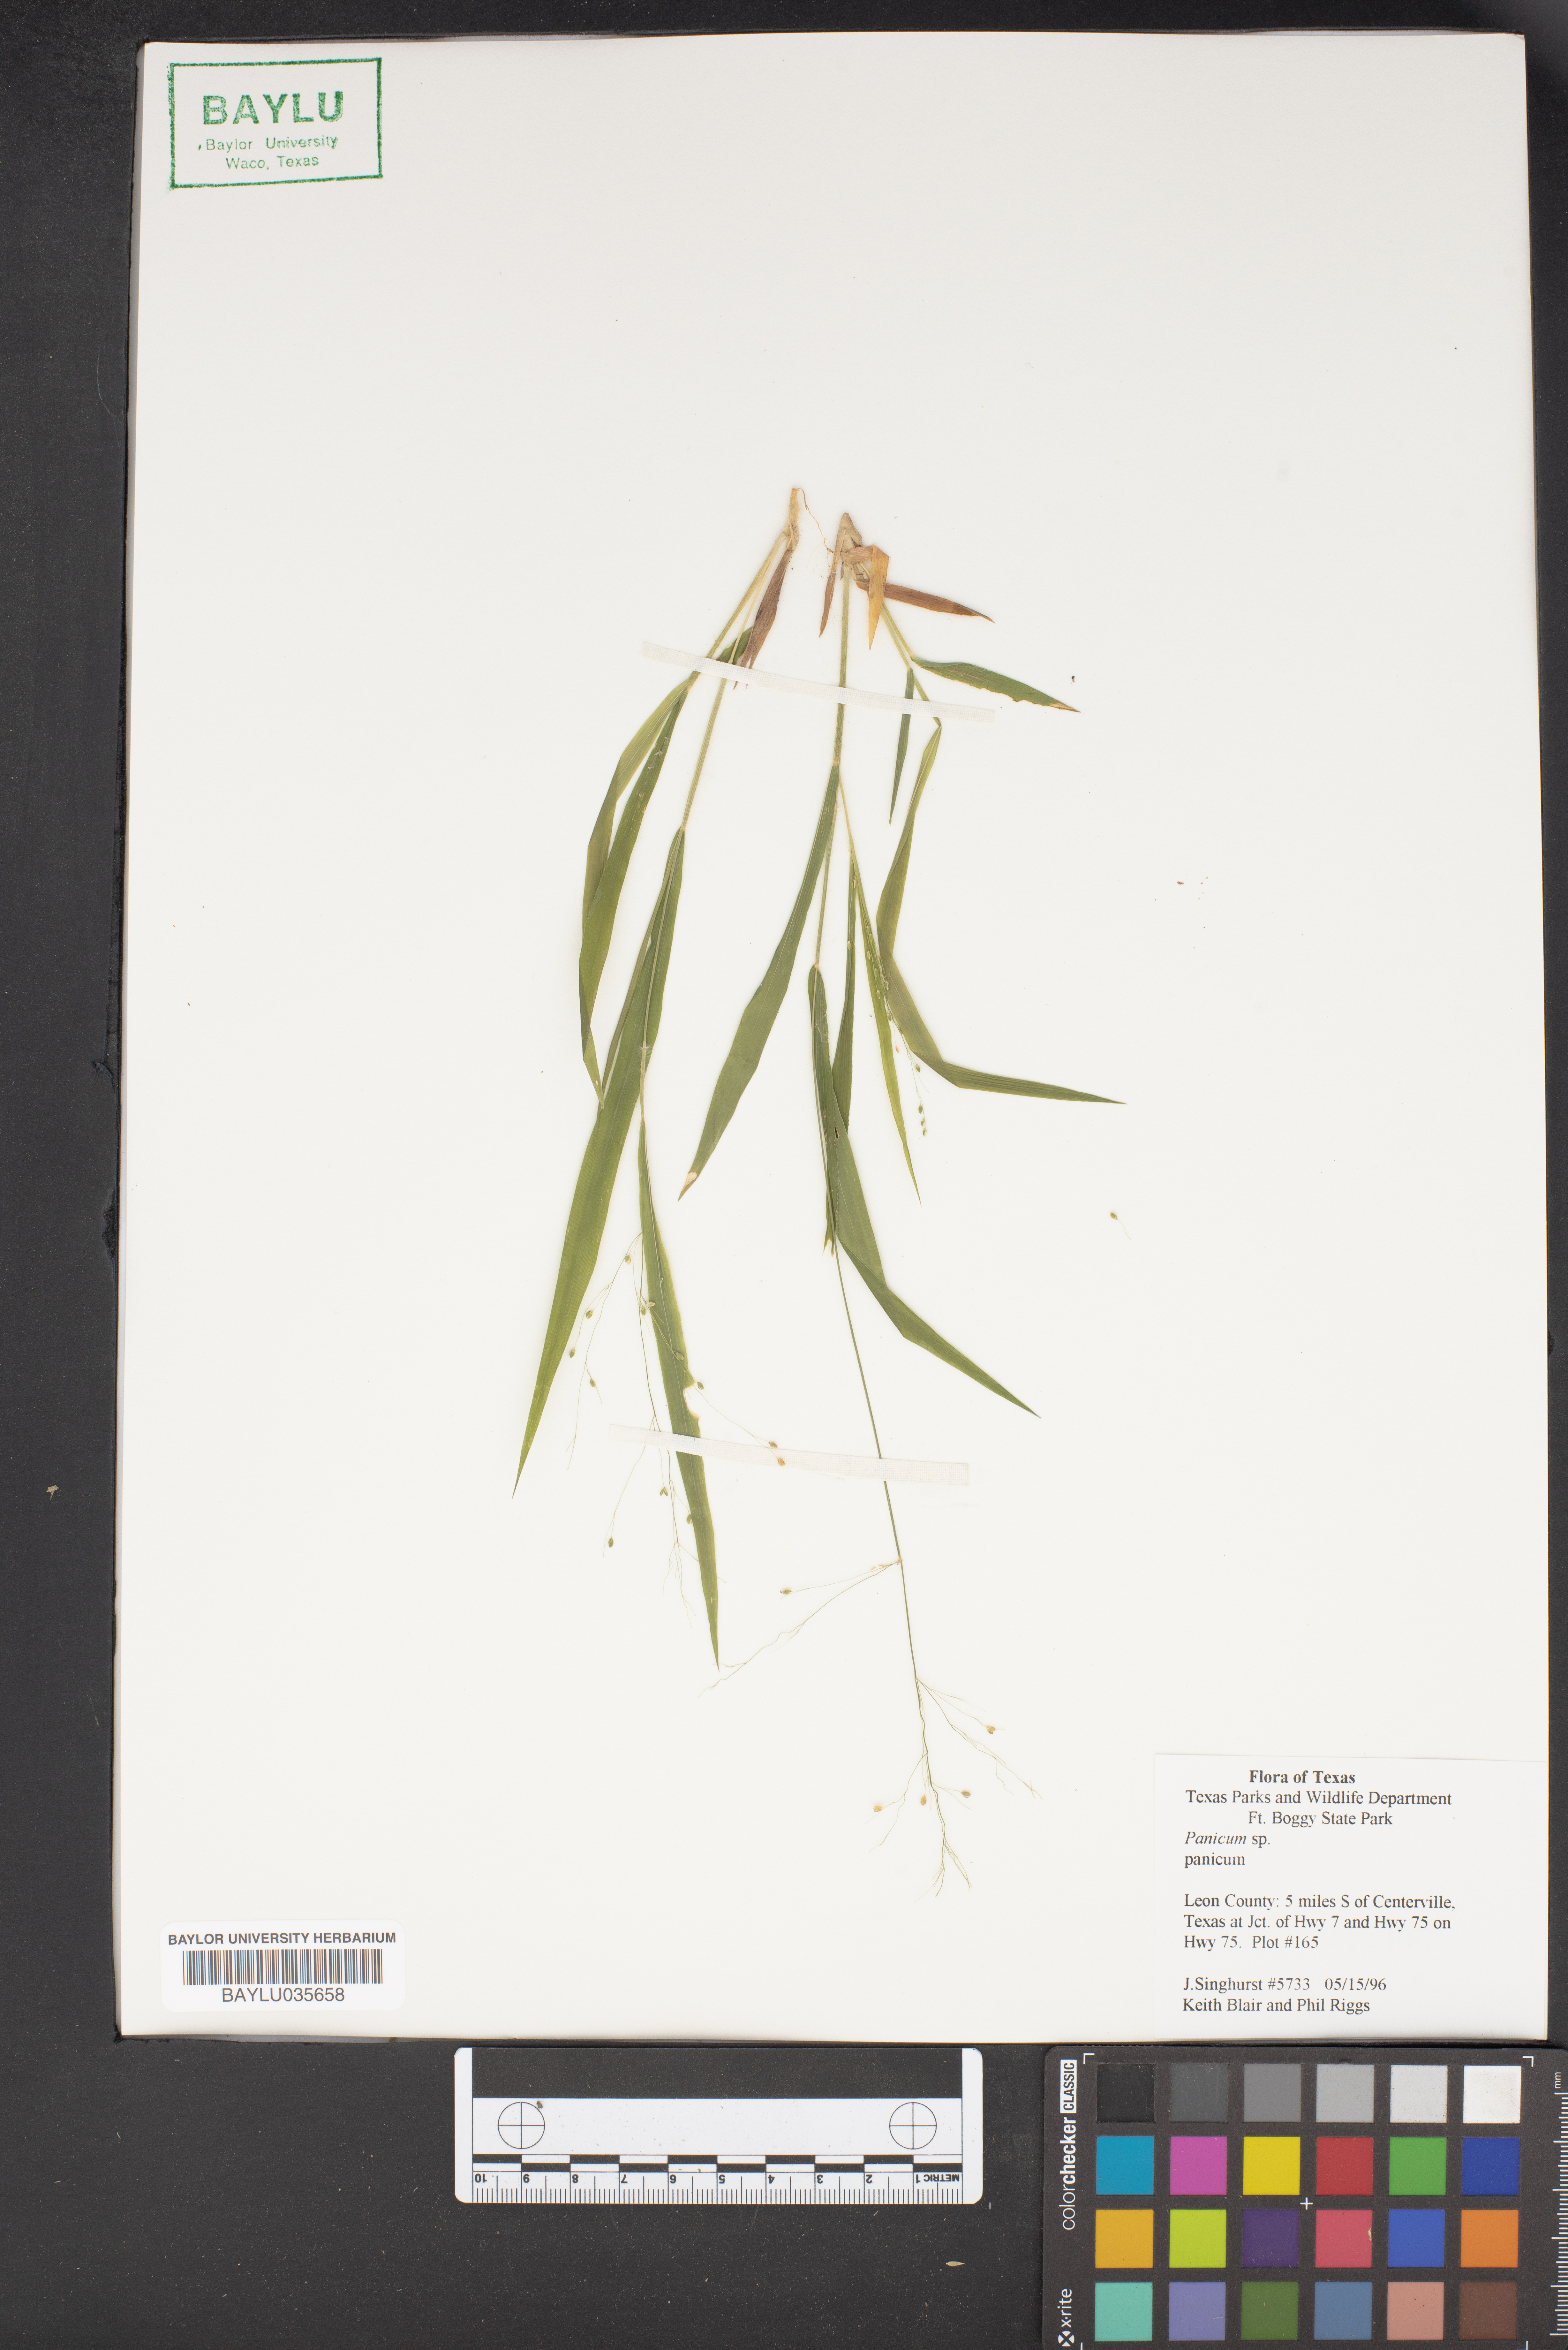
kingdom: Plantae
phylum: Tracheophyta
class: Liliopsida
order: Poales
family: Poaceae
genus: Panicum
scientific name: Panicum
